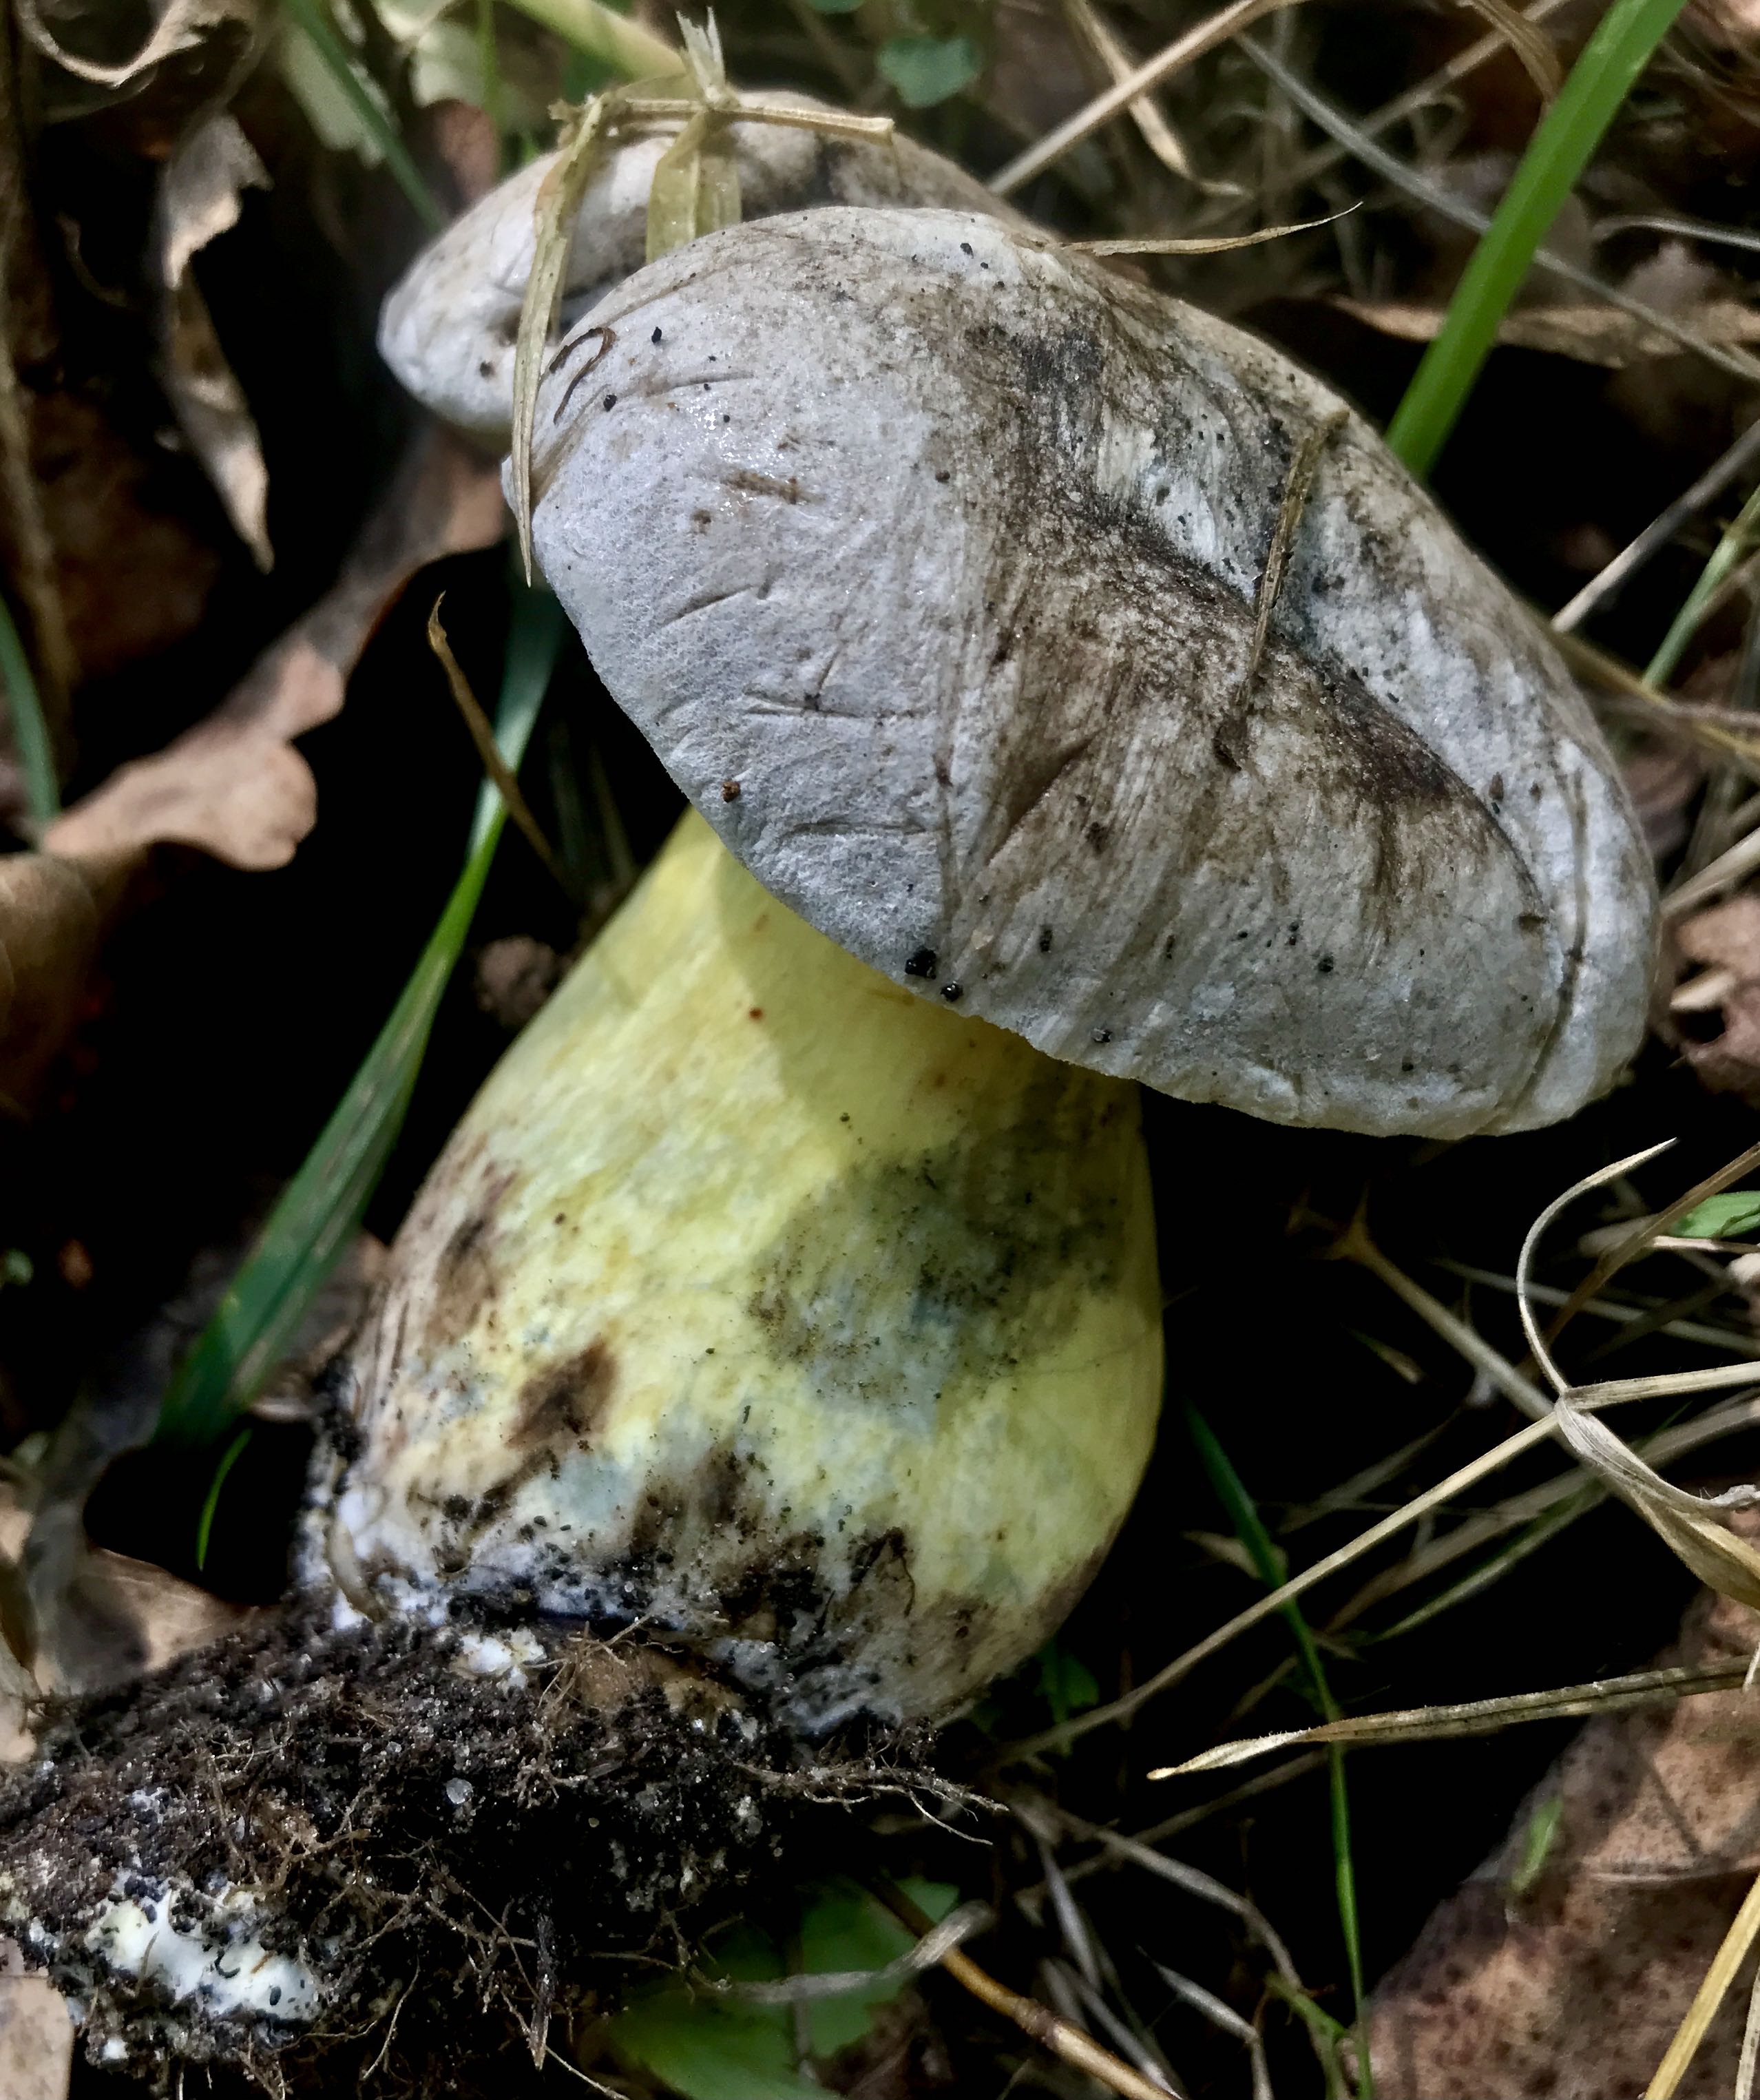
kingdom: Fungi
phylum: Basidiomycota
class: Agaricomycetes
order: Boletales
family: Boletaceae
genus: Caloboletus
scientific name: Caloboletus radicans
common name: rod-rørhat
